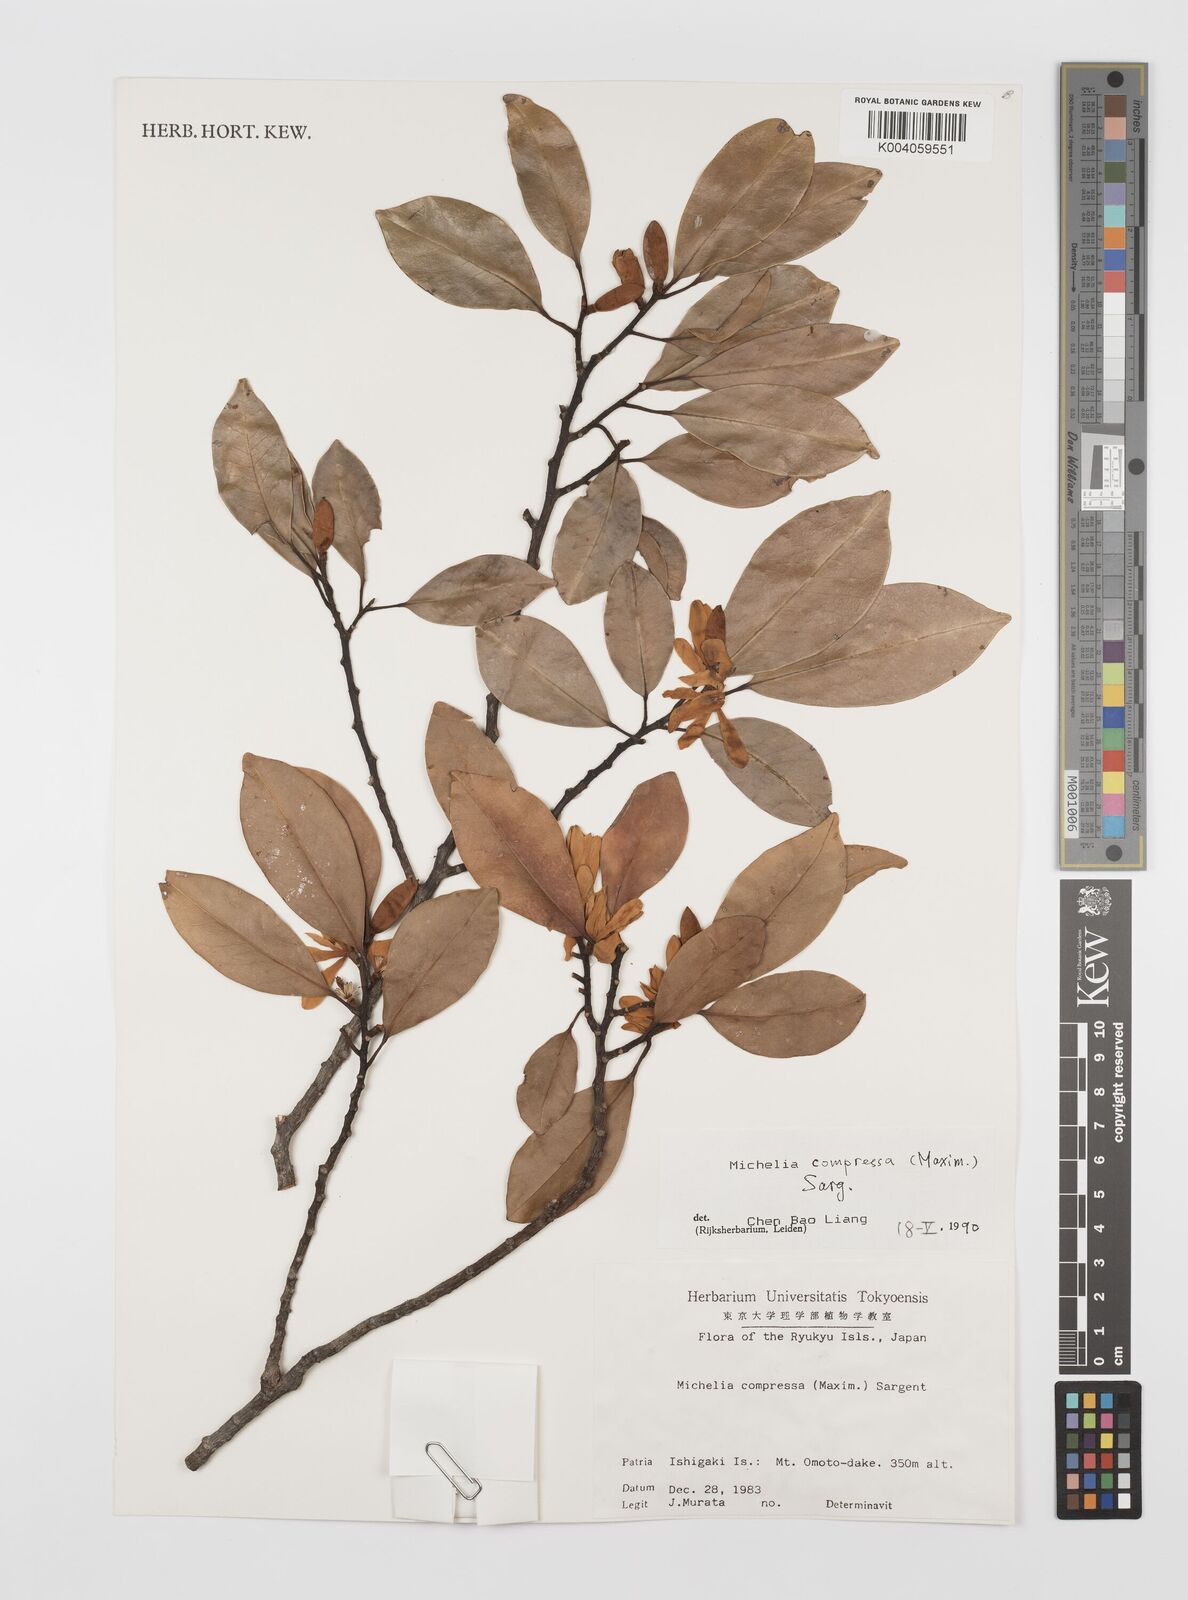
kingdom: Plantae
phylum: Tracheophyta
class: Magnoliopsida
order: Magnoliales
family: Magnoliaceae
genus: Magnolia
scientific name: Magnolia compressa
